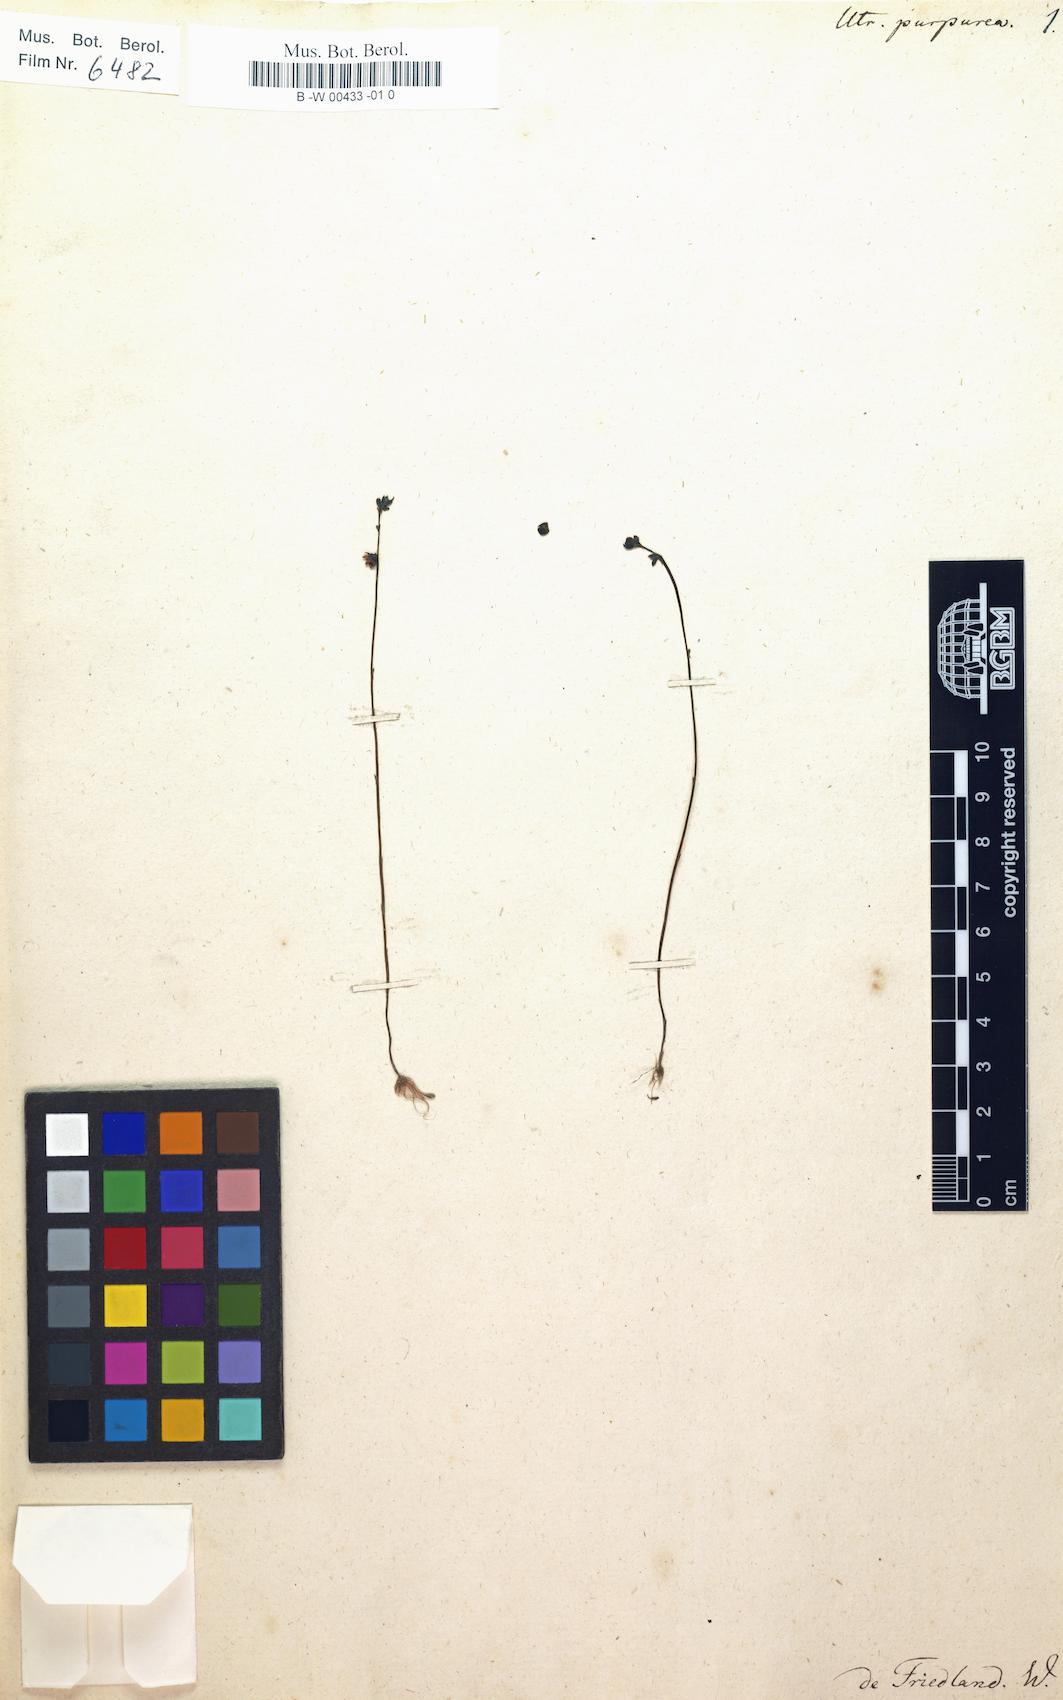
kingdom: Plantae
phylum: Tracheophyta
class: Magnoliopsida
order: Lamiales
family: Lentibulariaceae
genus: Utricularia
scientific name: Utricularia purpurea
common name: Eastern purple bladderwort
